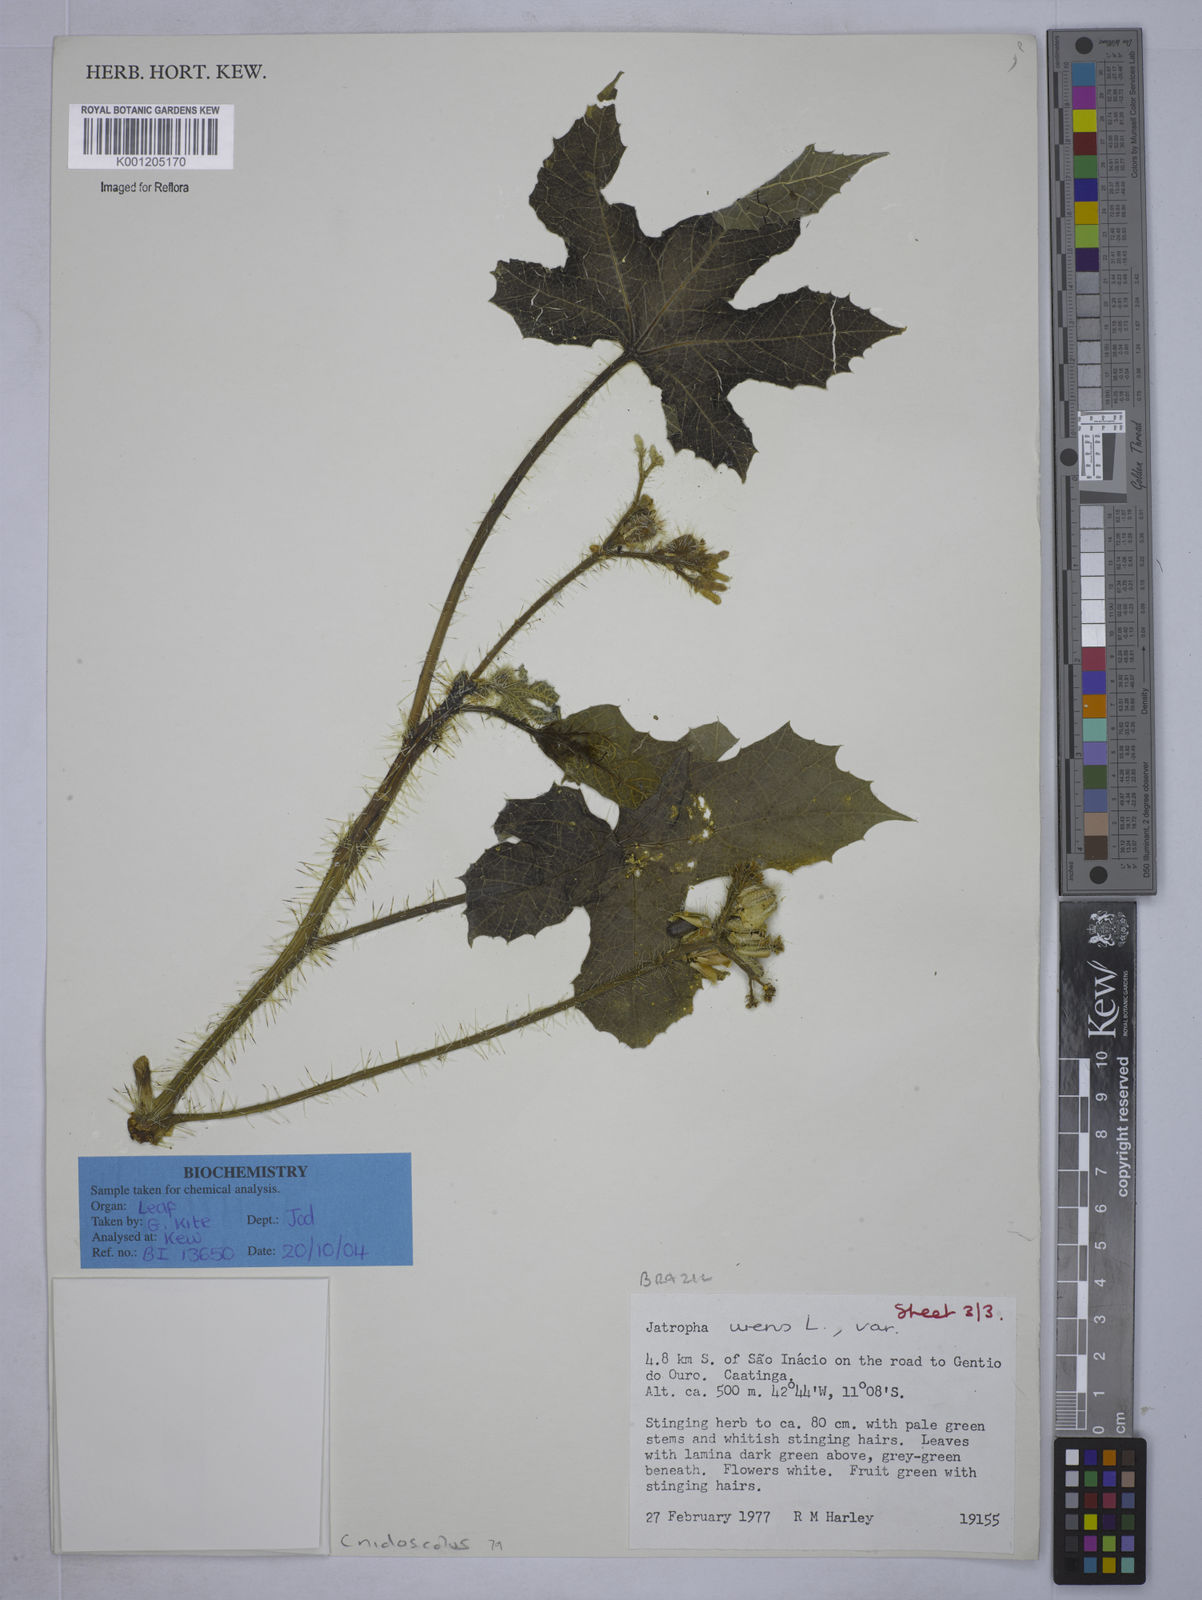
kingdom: Plantae
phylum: Tracheophyta
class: Magnoliopsida
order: Malpighiales
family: Euphorbiaceae
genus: Cnidoscolus
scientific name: Cnidoscolus urens
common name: Bull-nettle
